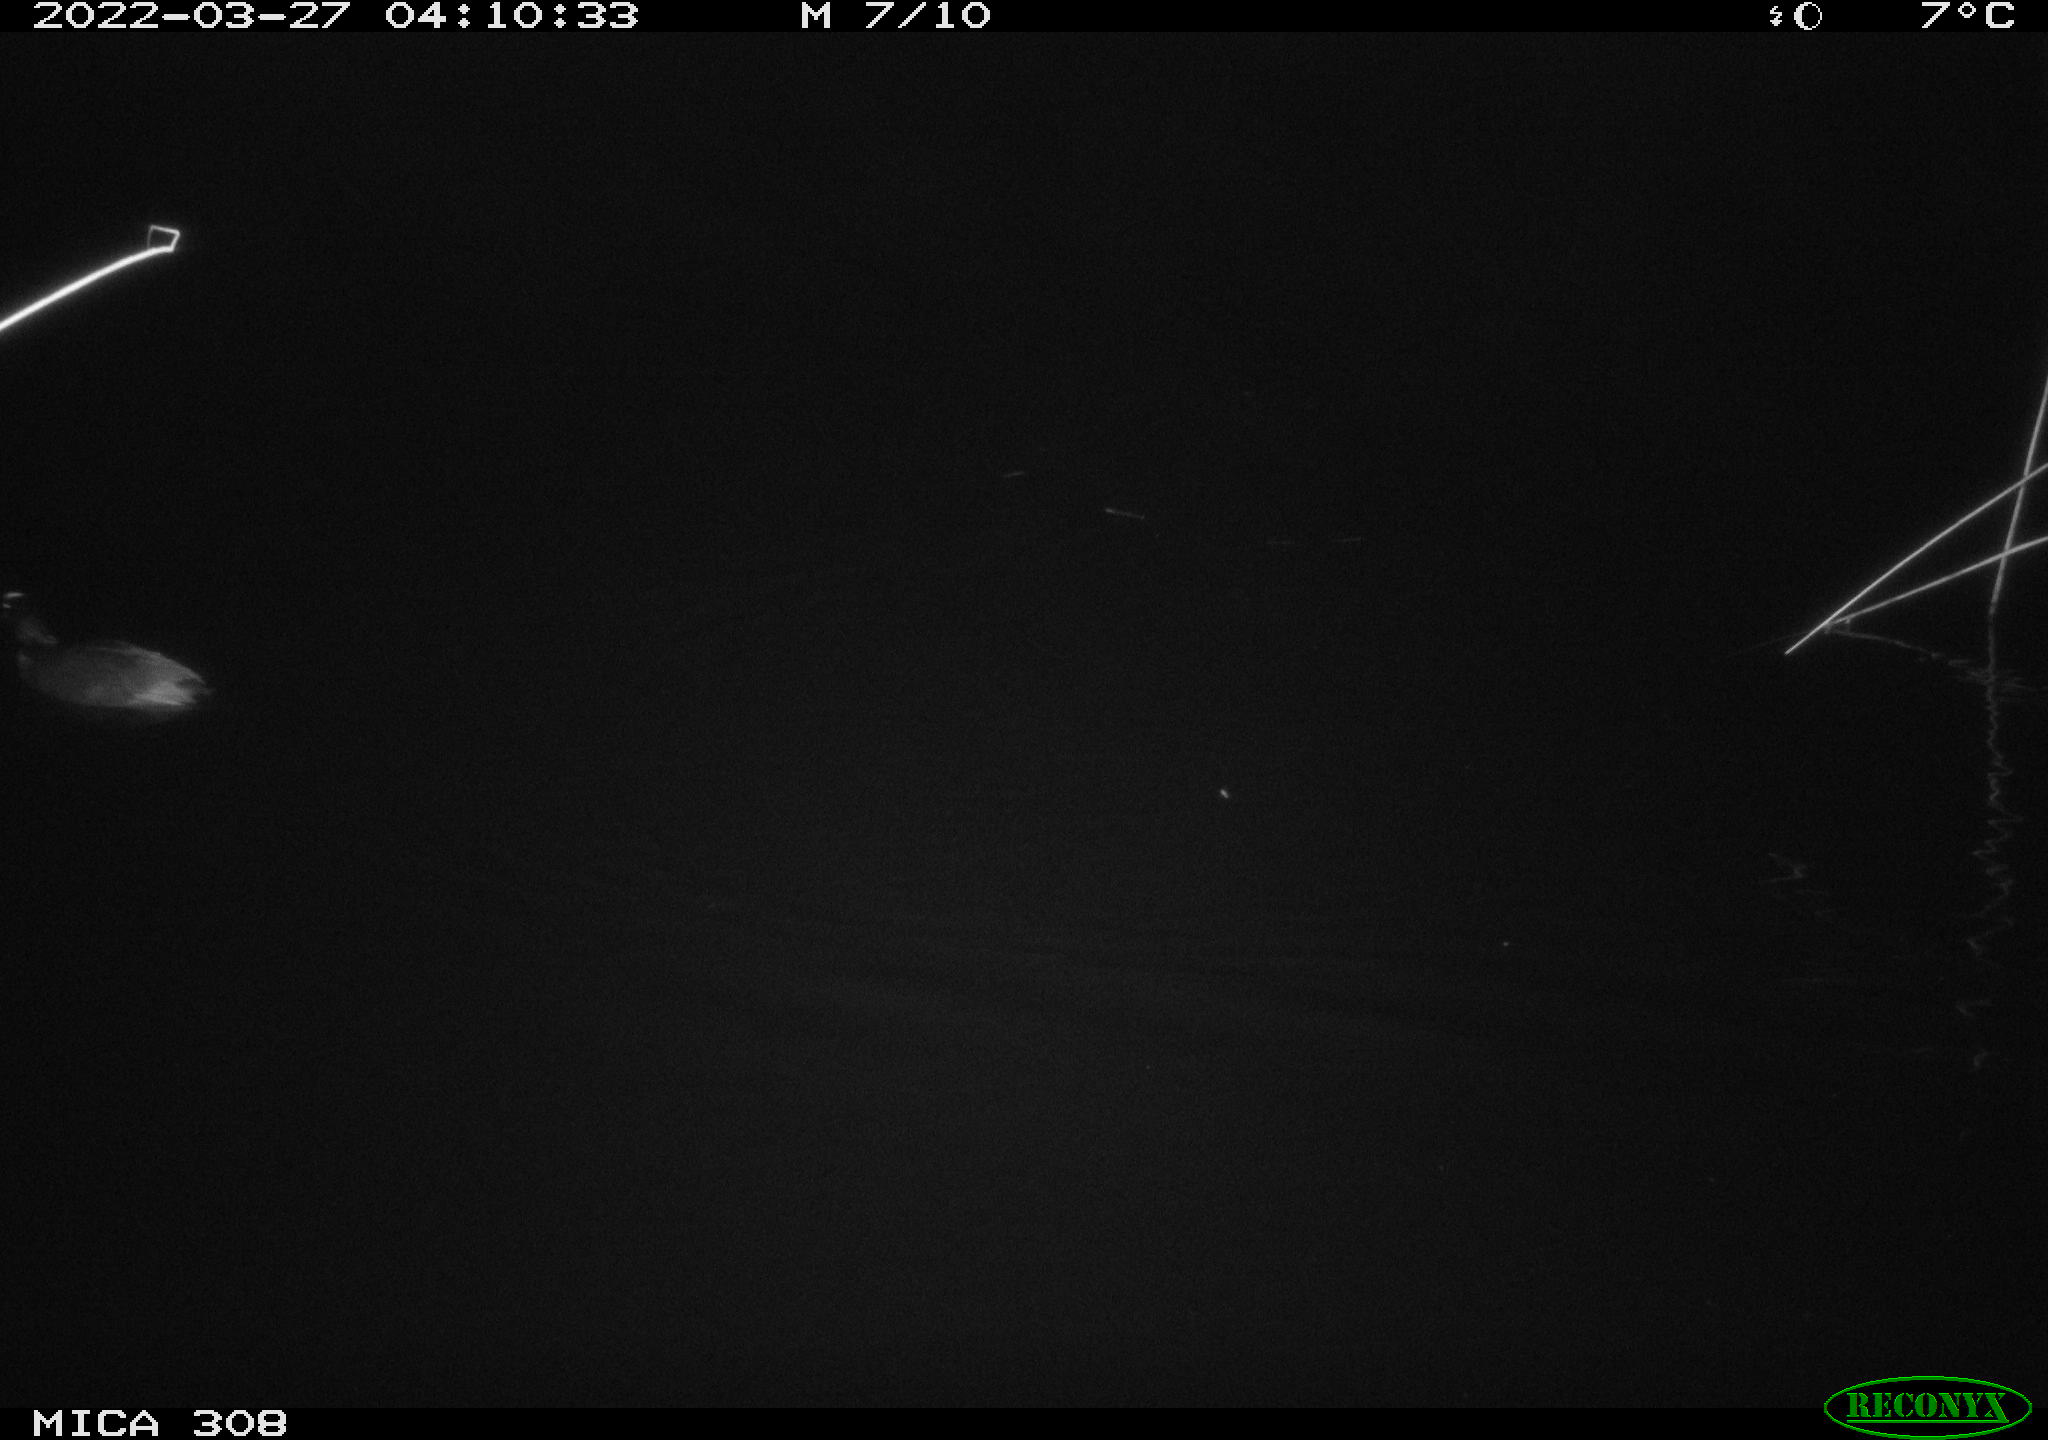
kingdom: Animalia
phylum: Chordata
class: Aves
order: Gruiformes
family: Rallidae
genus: Gallinula
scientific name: Gallinula chloropus
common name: Common moorhen
